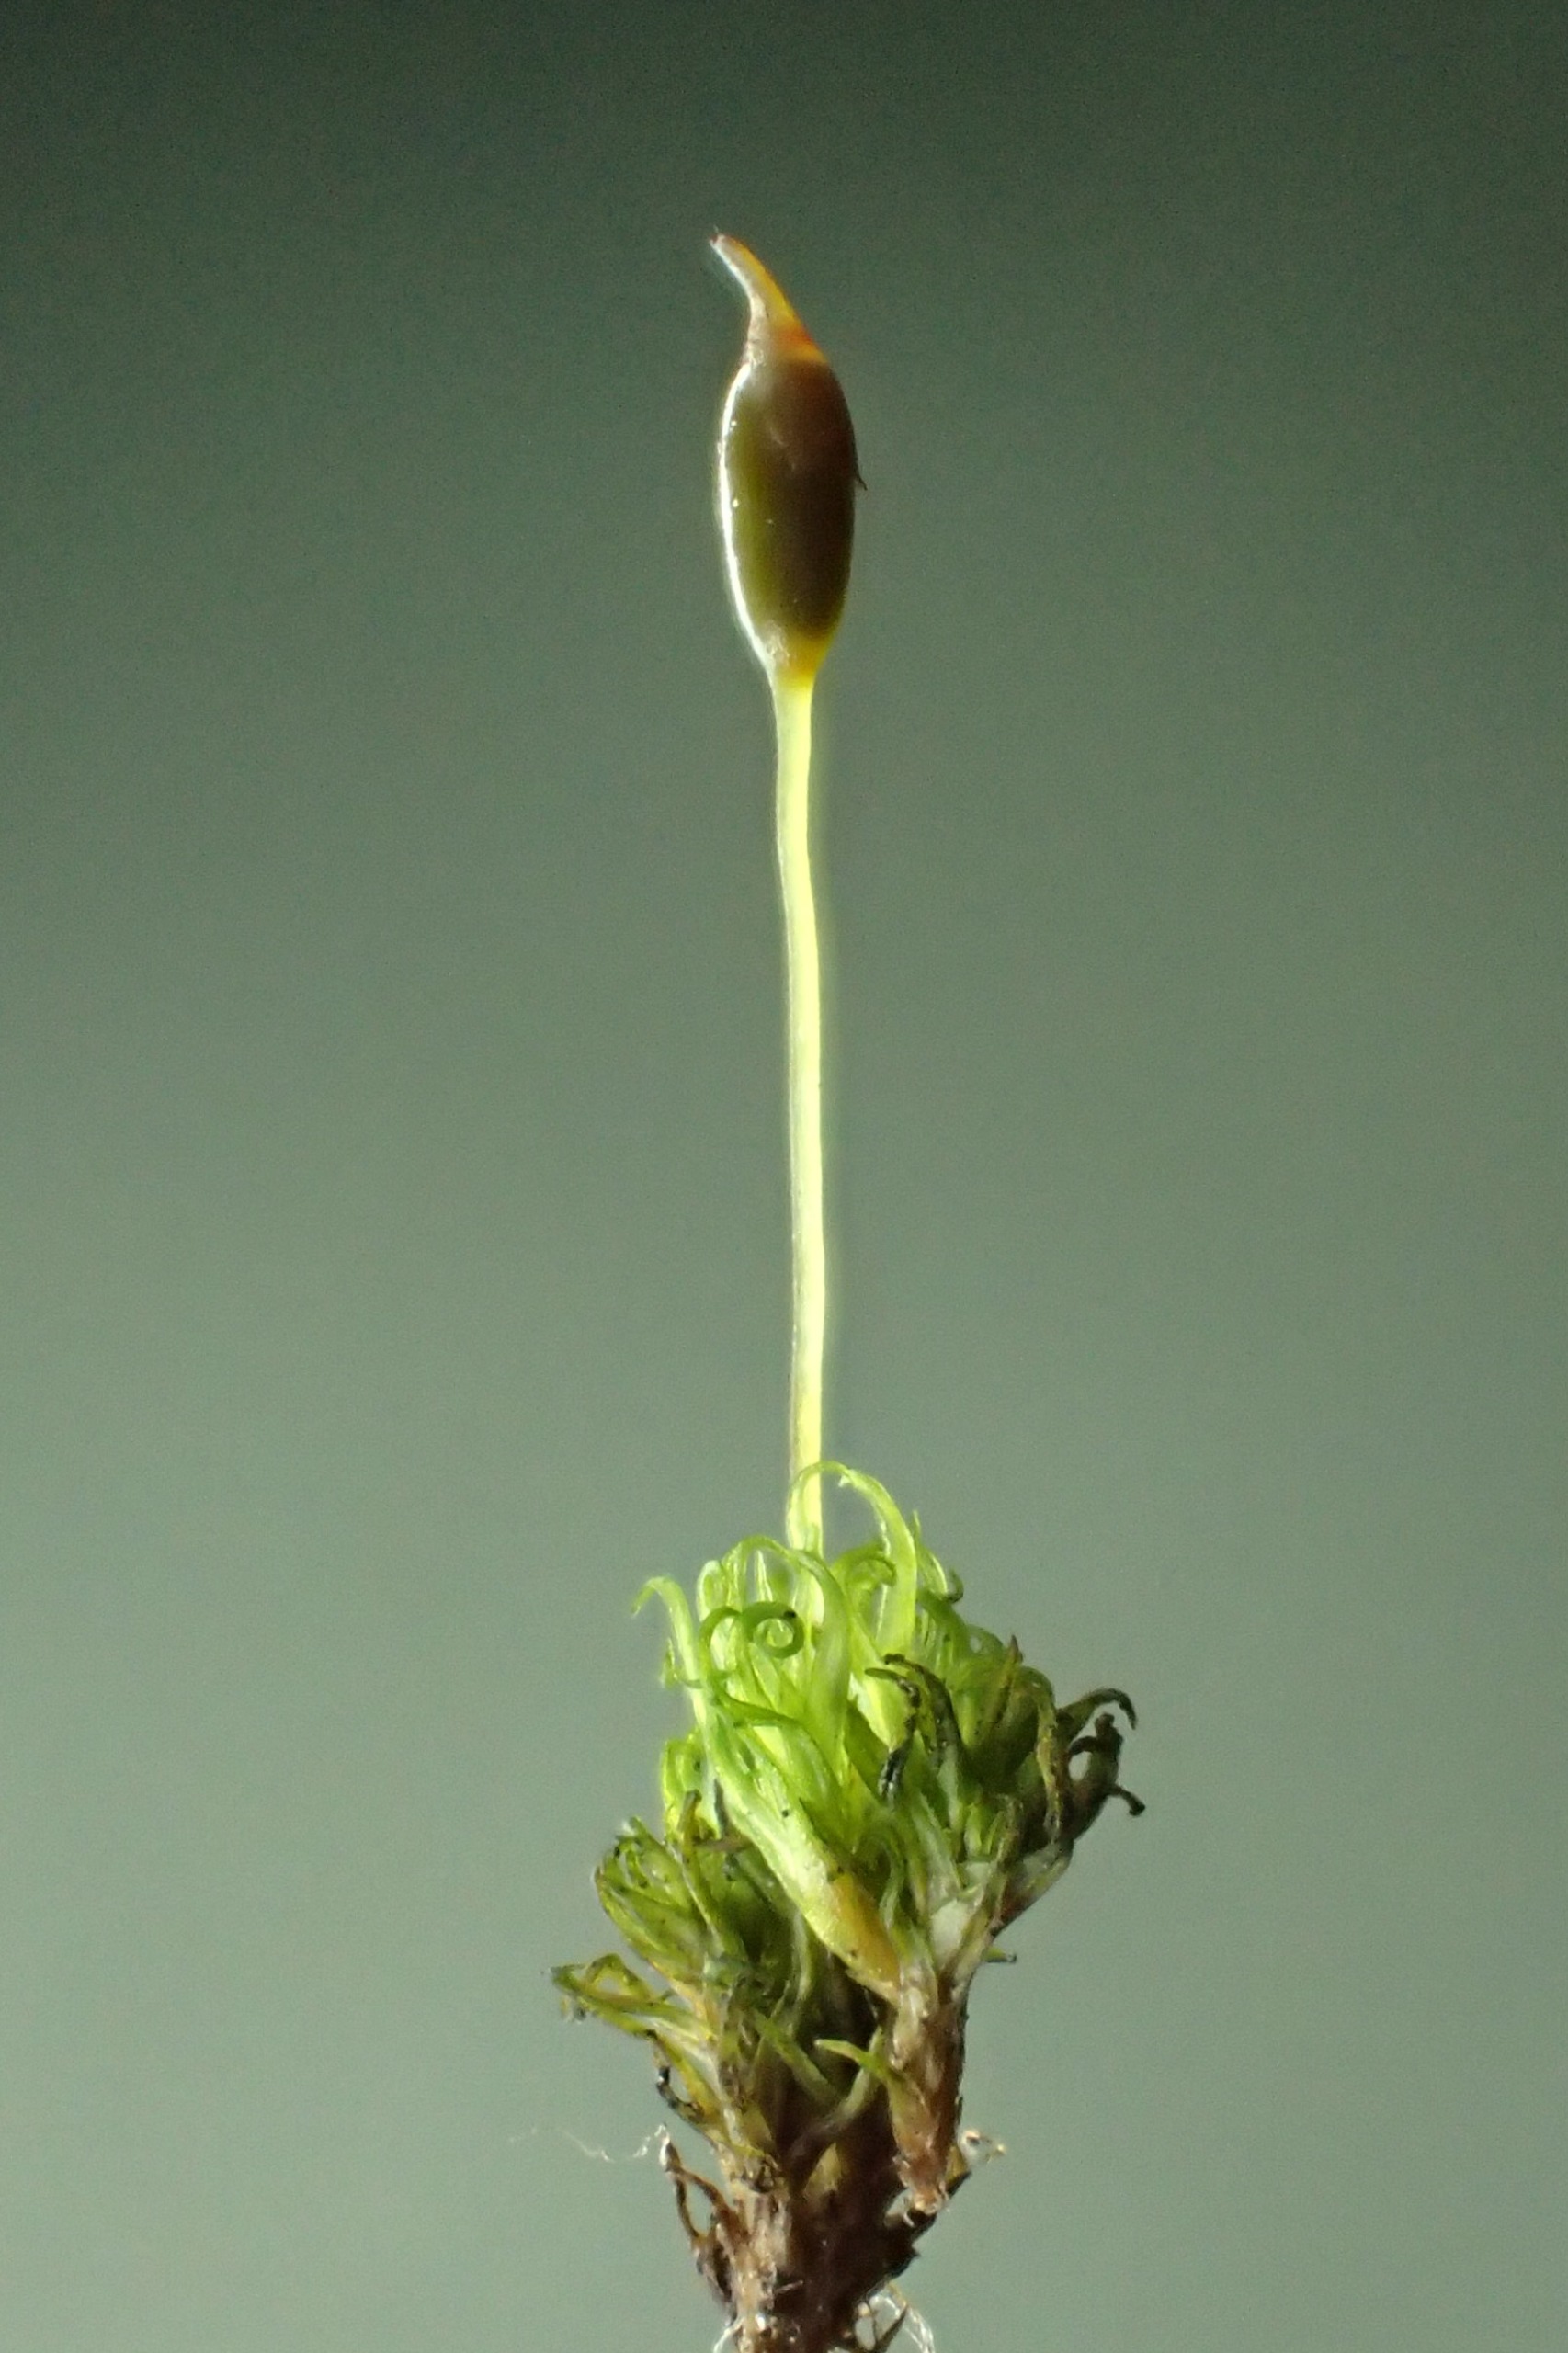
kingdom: Plantae
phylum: Bryophyta
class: Bryopsida
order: Dicranales
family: Rhabdoweisiaceae
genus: Dicranoweisia
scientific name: Dicranoweisia cirrata
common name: Almindelig krøltuemos
